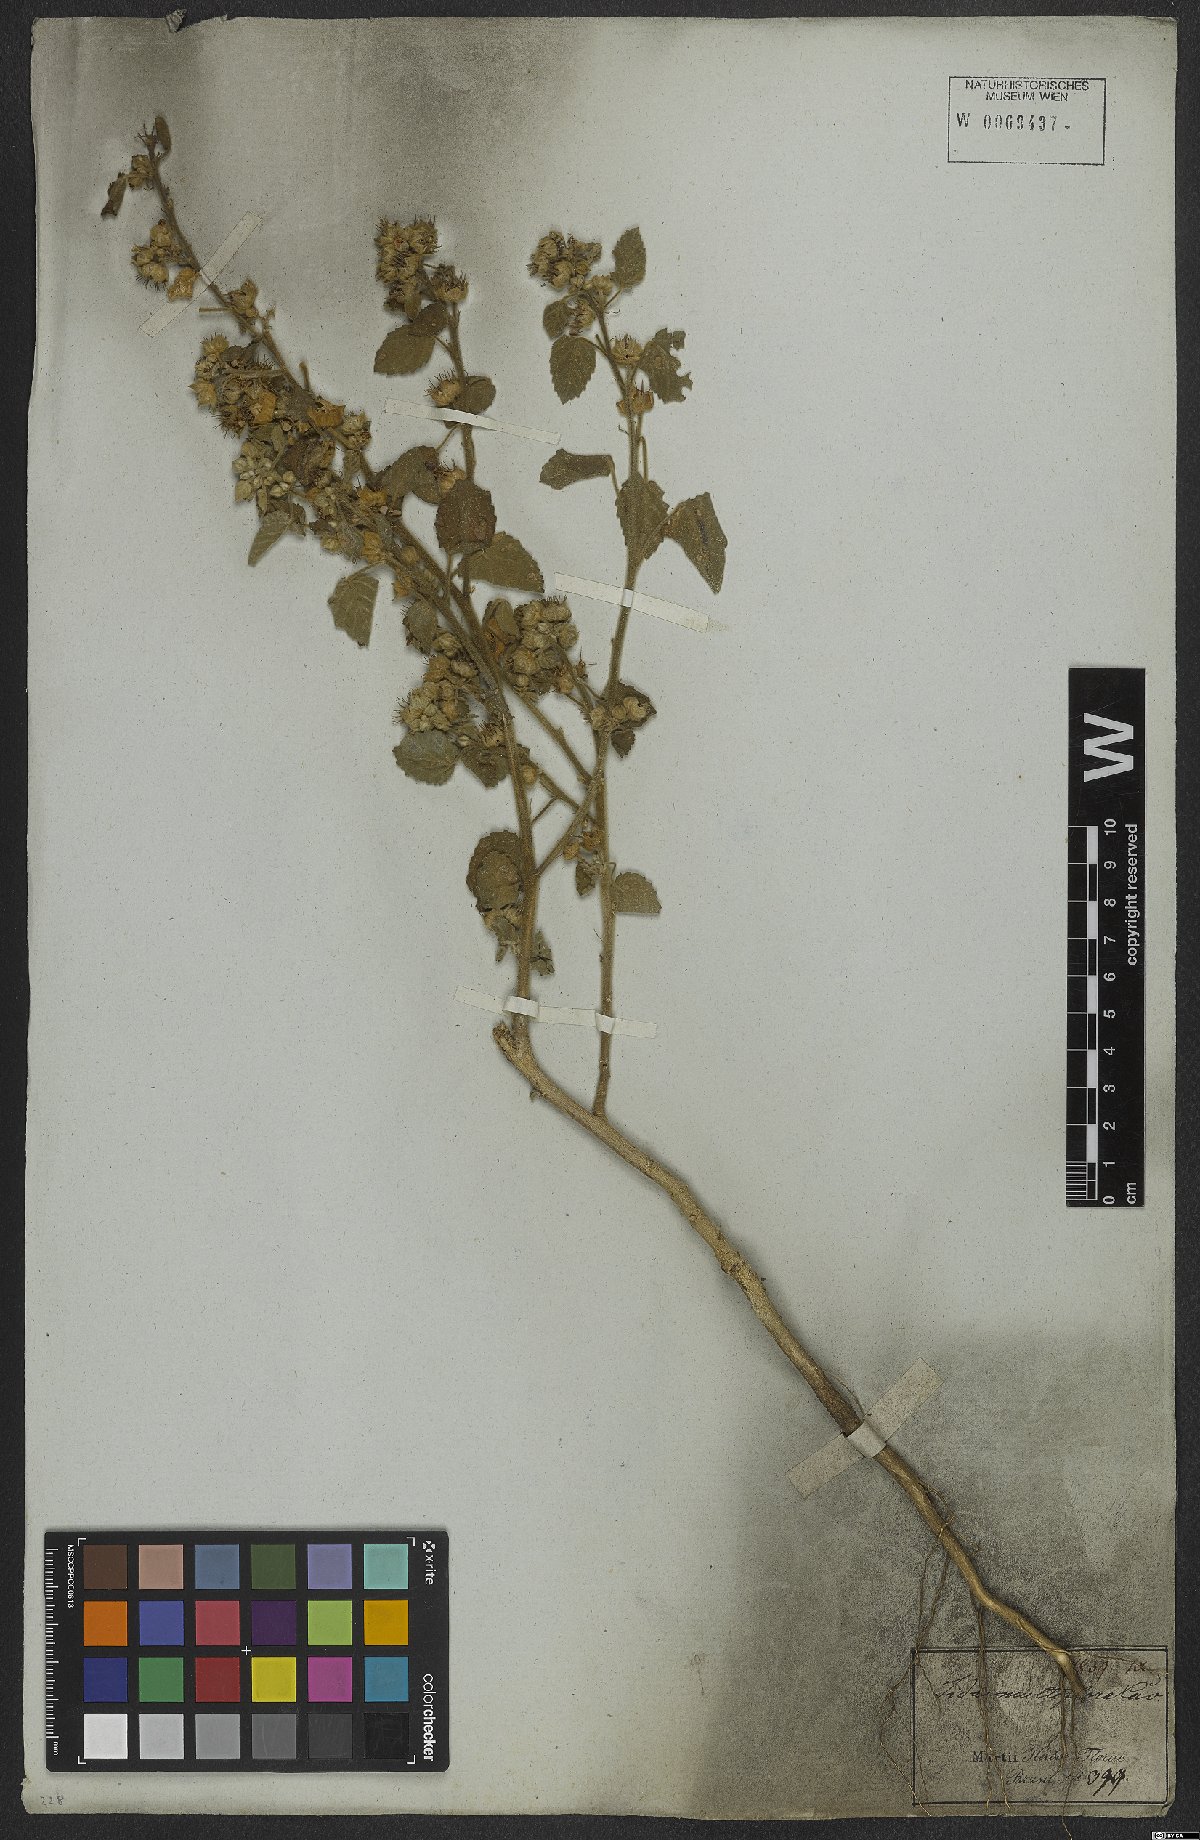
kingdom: Plantae
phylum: Tracheophyta
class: Magnoliopsida
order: Malvales
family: Malvaceae
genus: Sida
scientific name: Sida cordifolia
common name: Ilima
